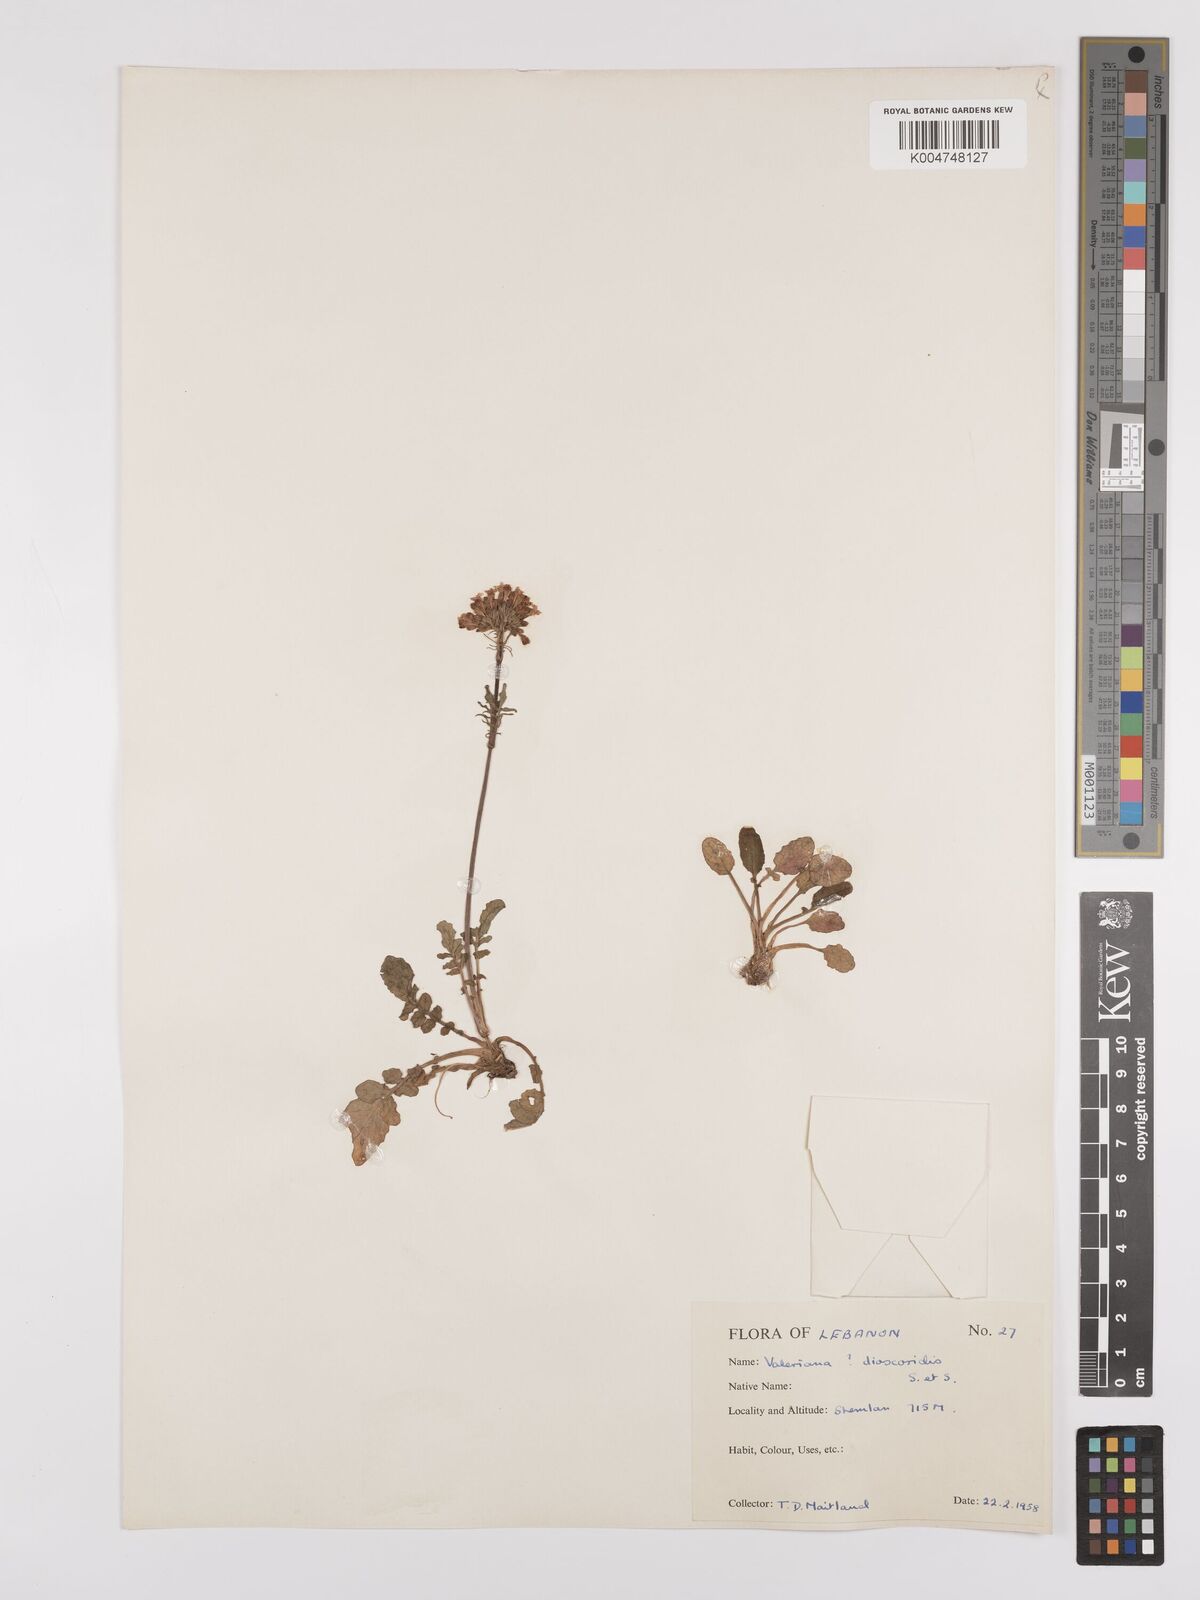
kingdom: Plantae
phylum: Tracheophyta
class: Magnoliopsida
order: Dipsacales
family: Caprifoliaceae
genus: Valeriana
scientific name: Valeriana
